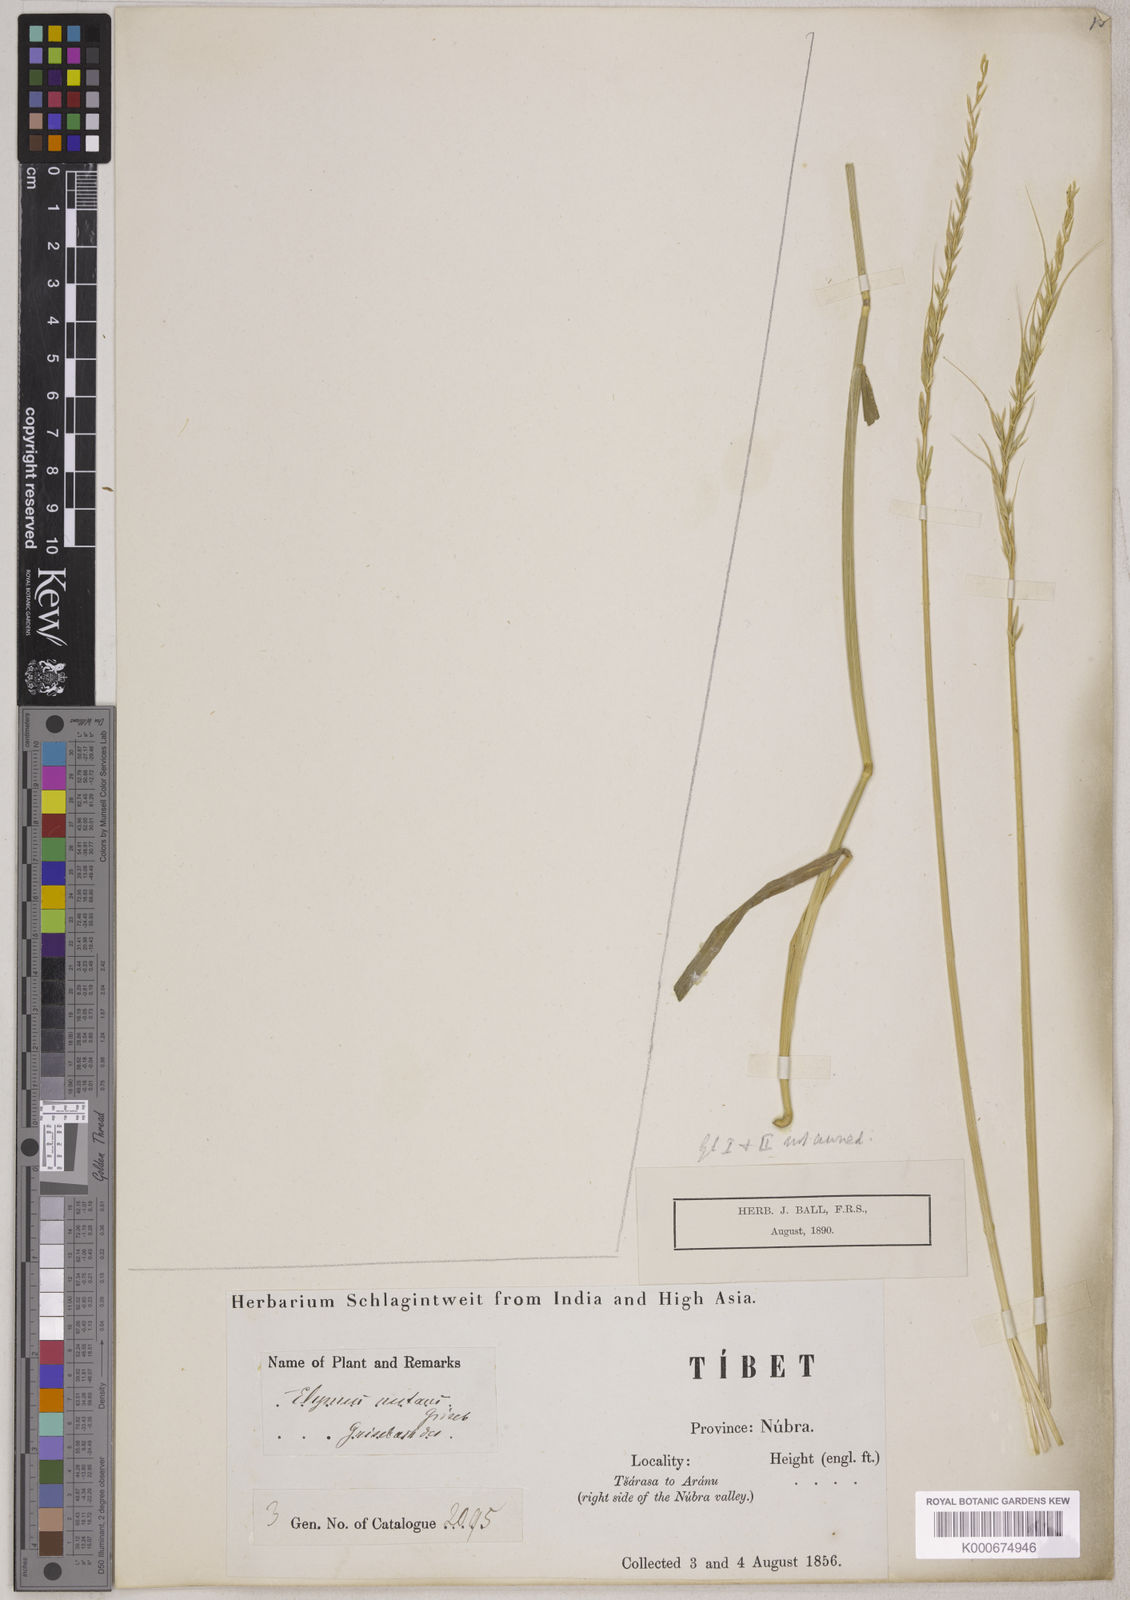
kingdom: Plantae
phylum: Tracheophyta
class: Liliopsida
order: Poales
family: Poaceae
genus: Elymus
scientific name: Elymus sibiricus
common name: Siberian wildrye
